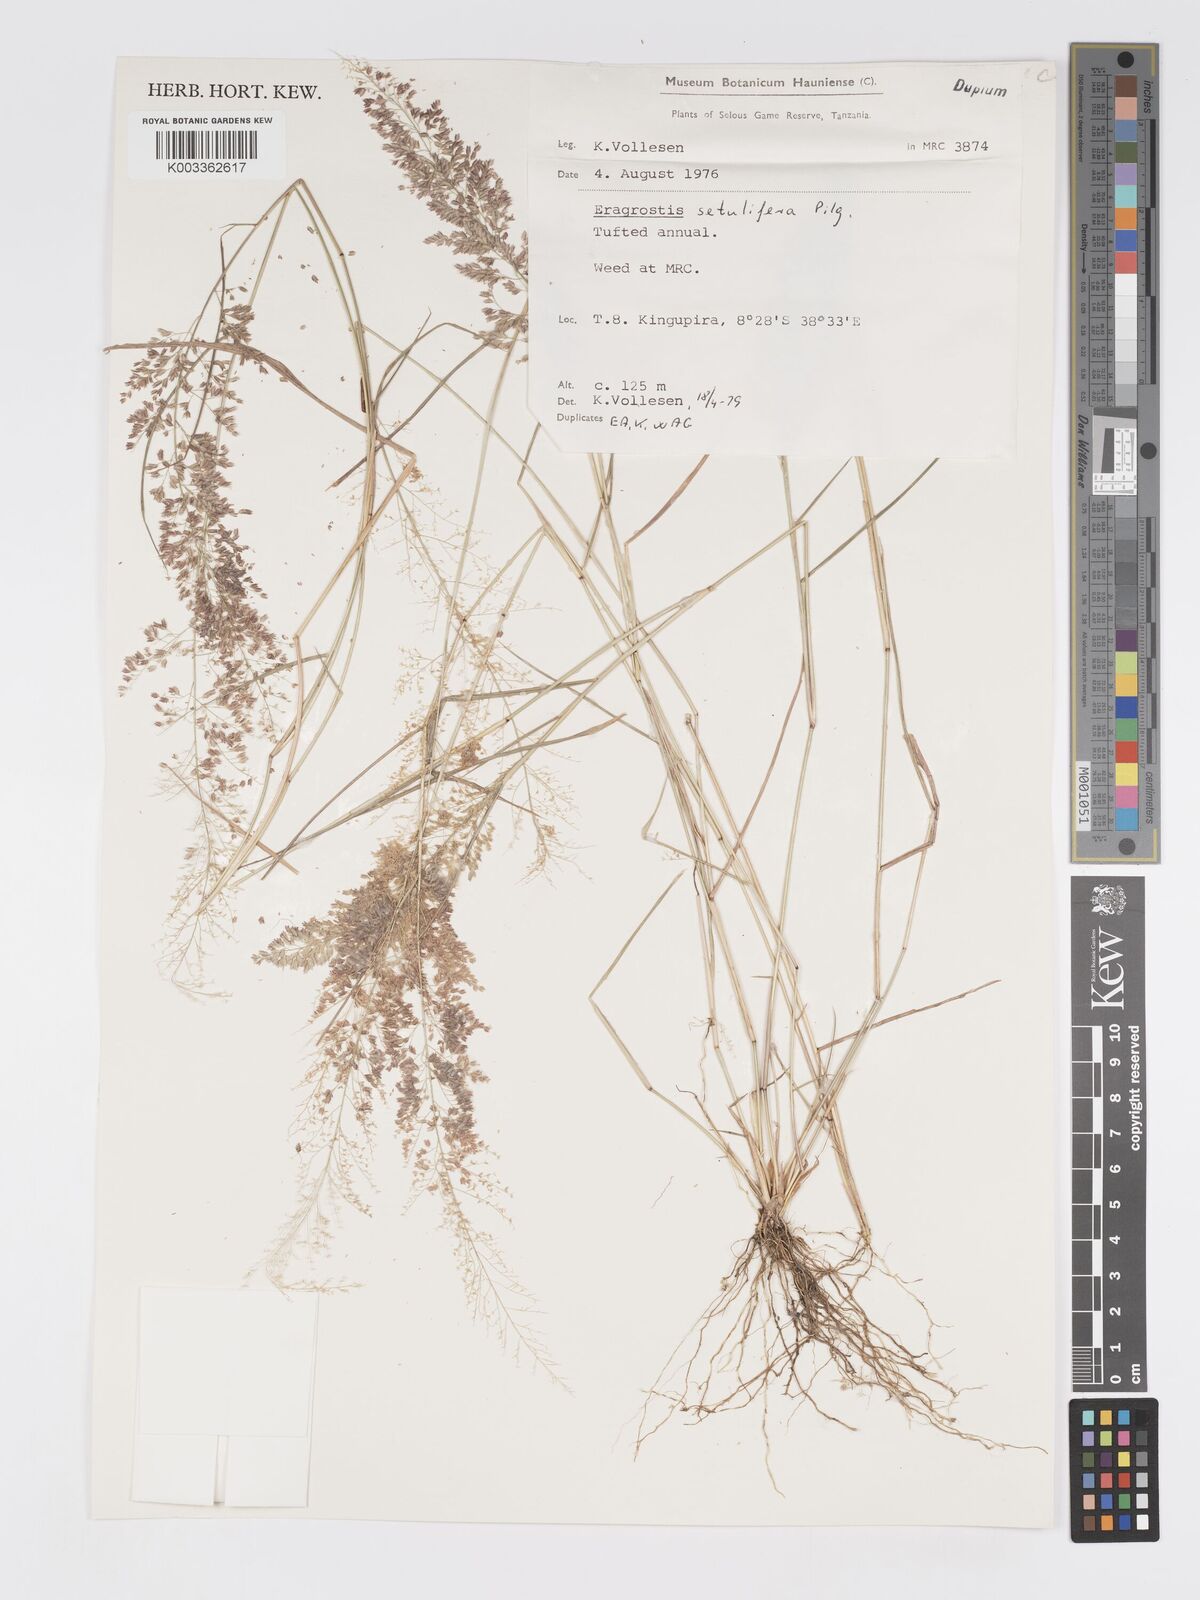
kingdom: Plantae
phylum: Tracheophyta
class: Liliopsida
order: Poales
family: Poaceae
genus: Eragrostis
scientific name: Eragrostis setulifera
